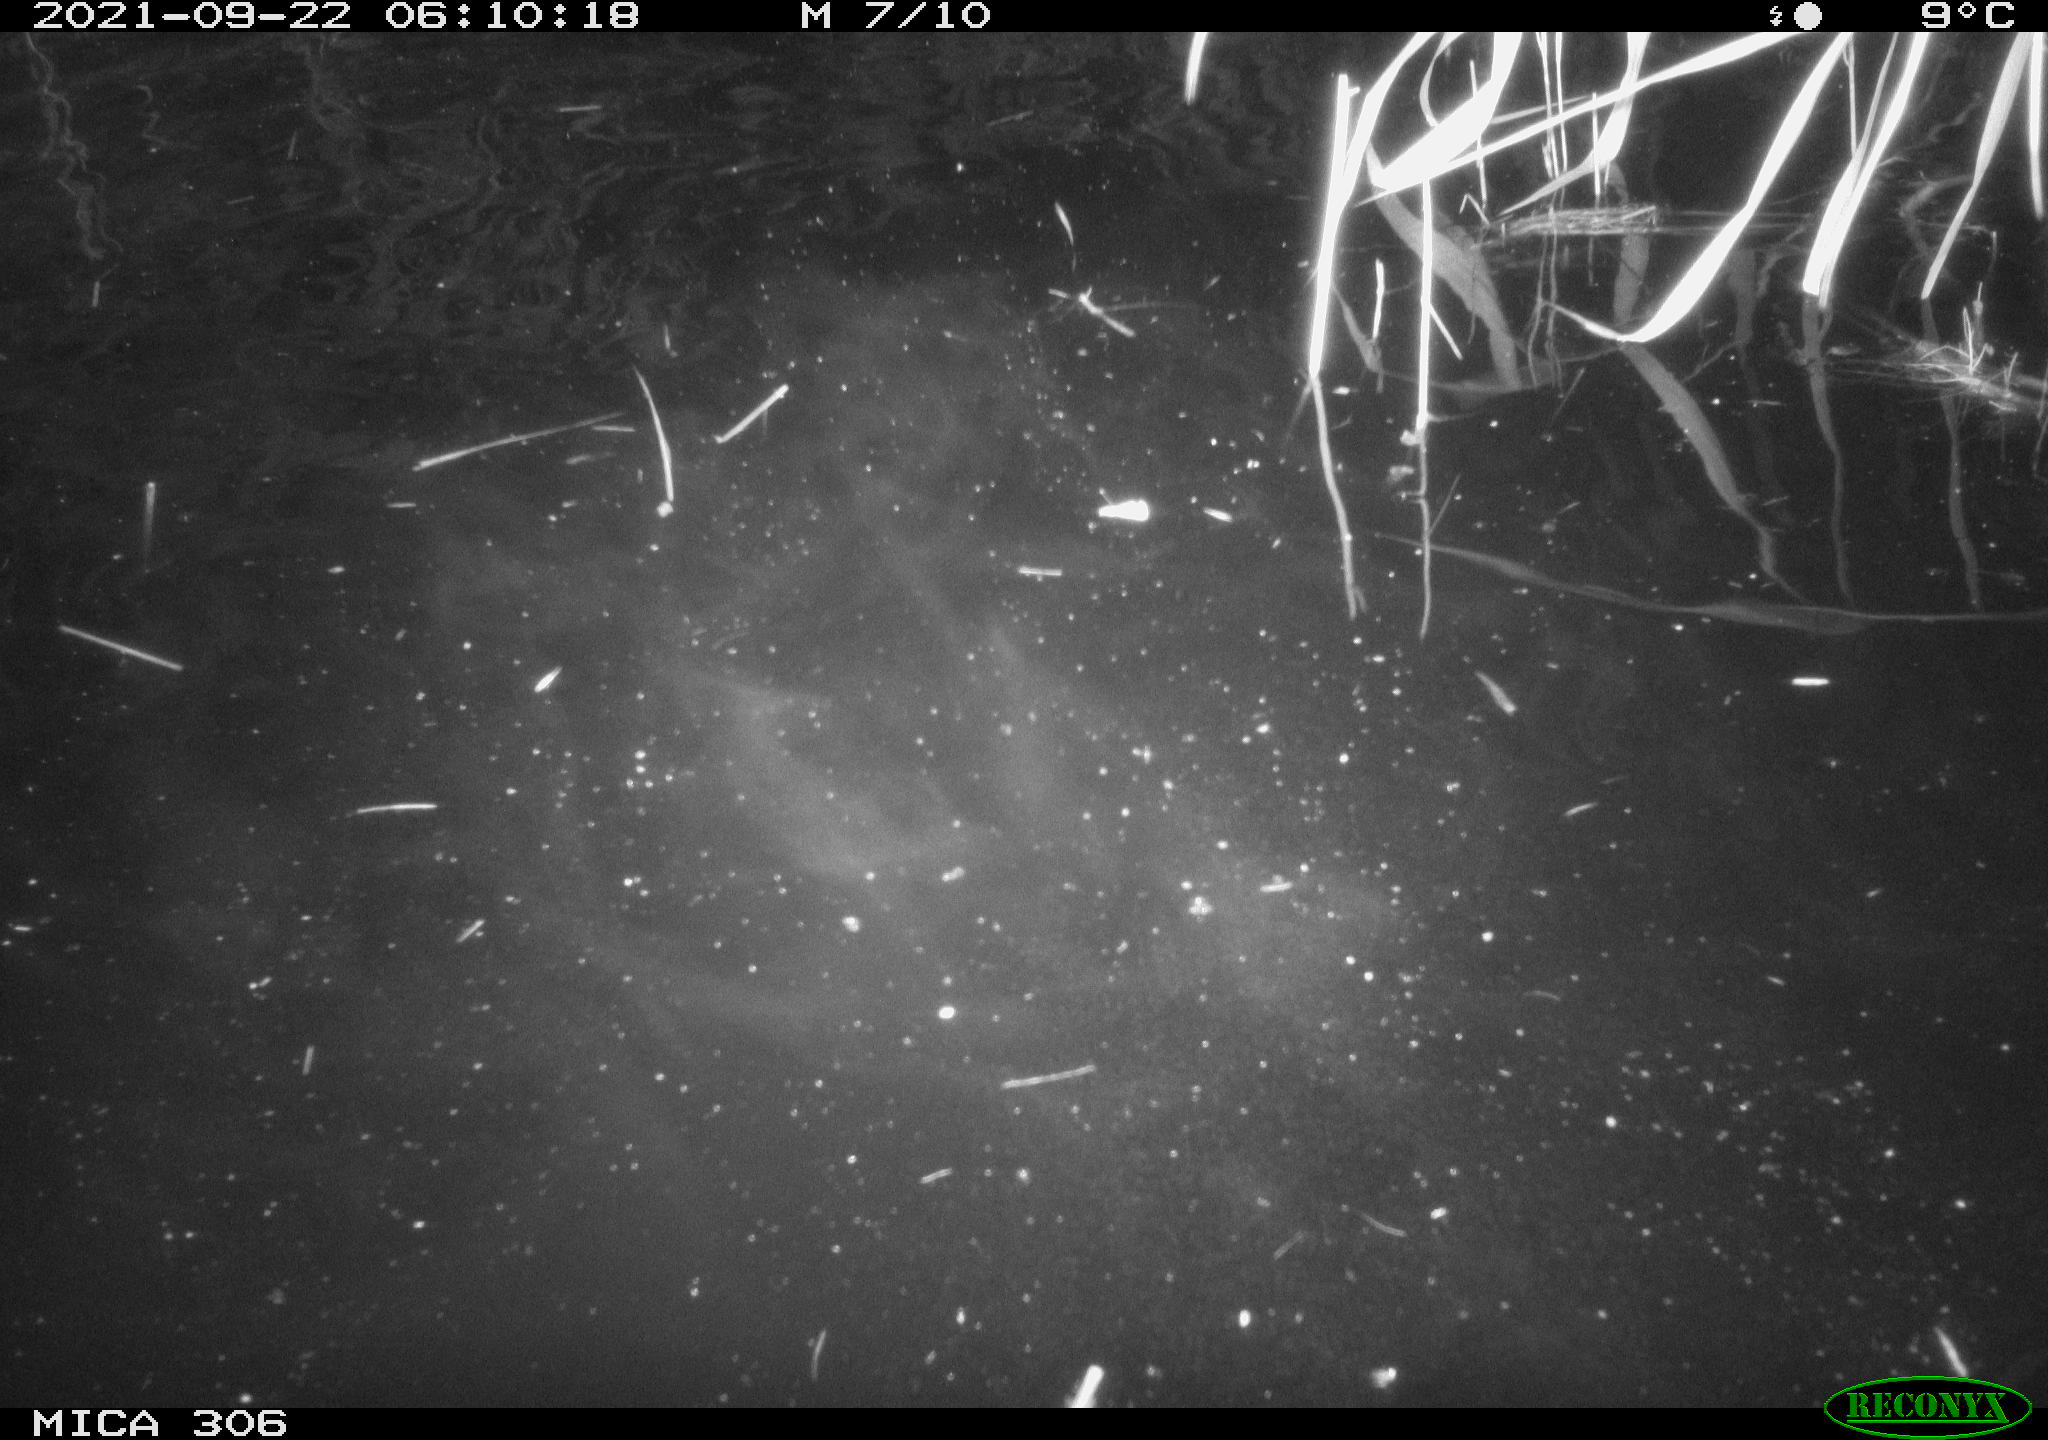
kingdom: Animalia
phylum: Chordata
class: Mammalia
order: Rodentia
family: Cricetidae
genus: Ondatra
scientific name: Ondatra zibethicus
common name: Muskrat
